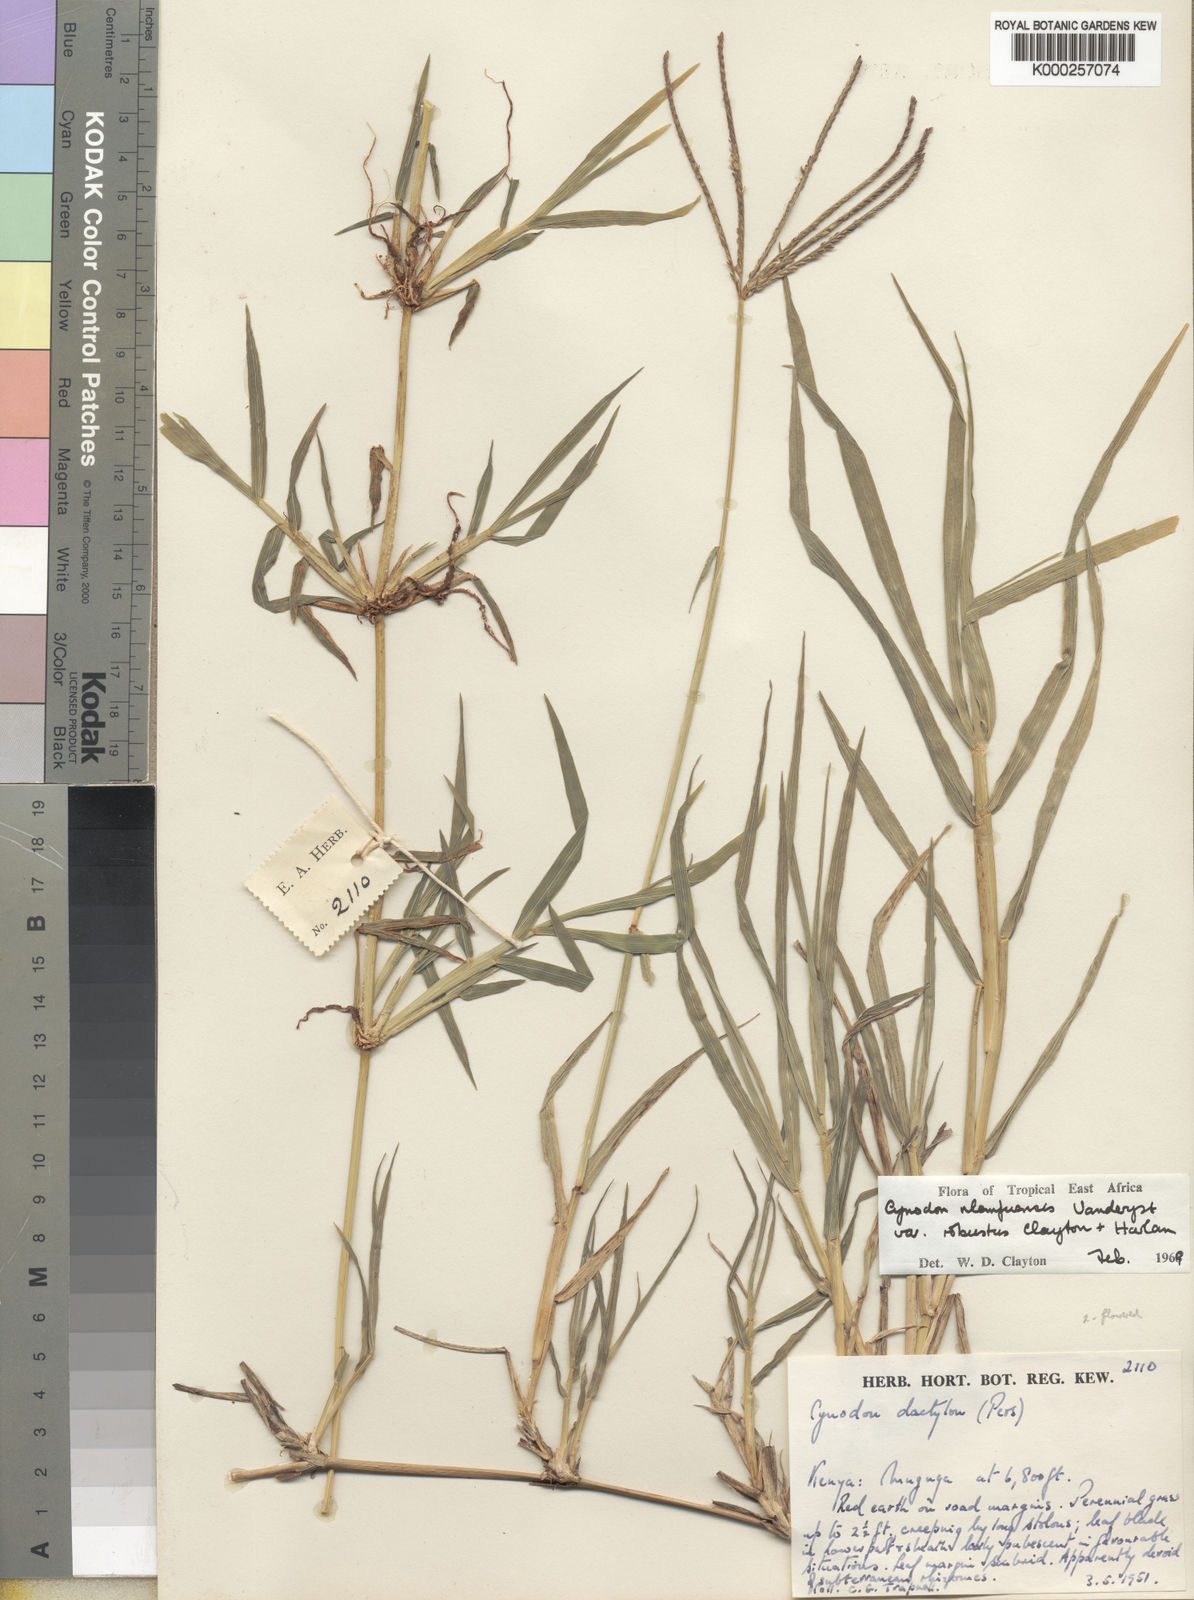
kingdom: Plantae
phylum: Tracheophyta
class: Liliopsida
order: Poales
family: Poaceae
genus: Cynodon
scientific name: Cynodon nlemfuensis
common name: African bermudagrass
